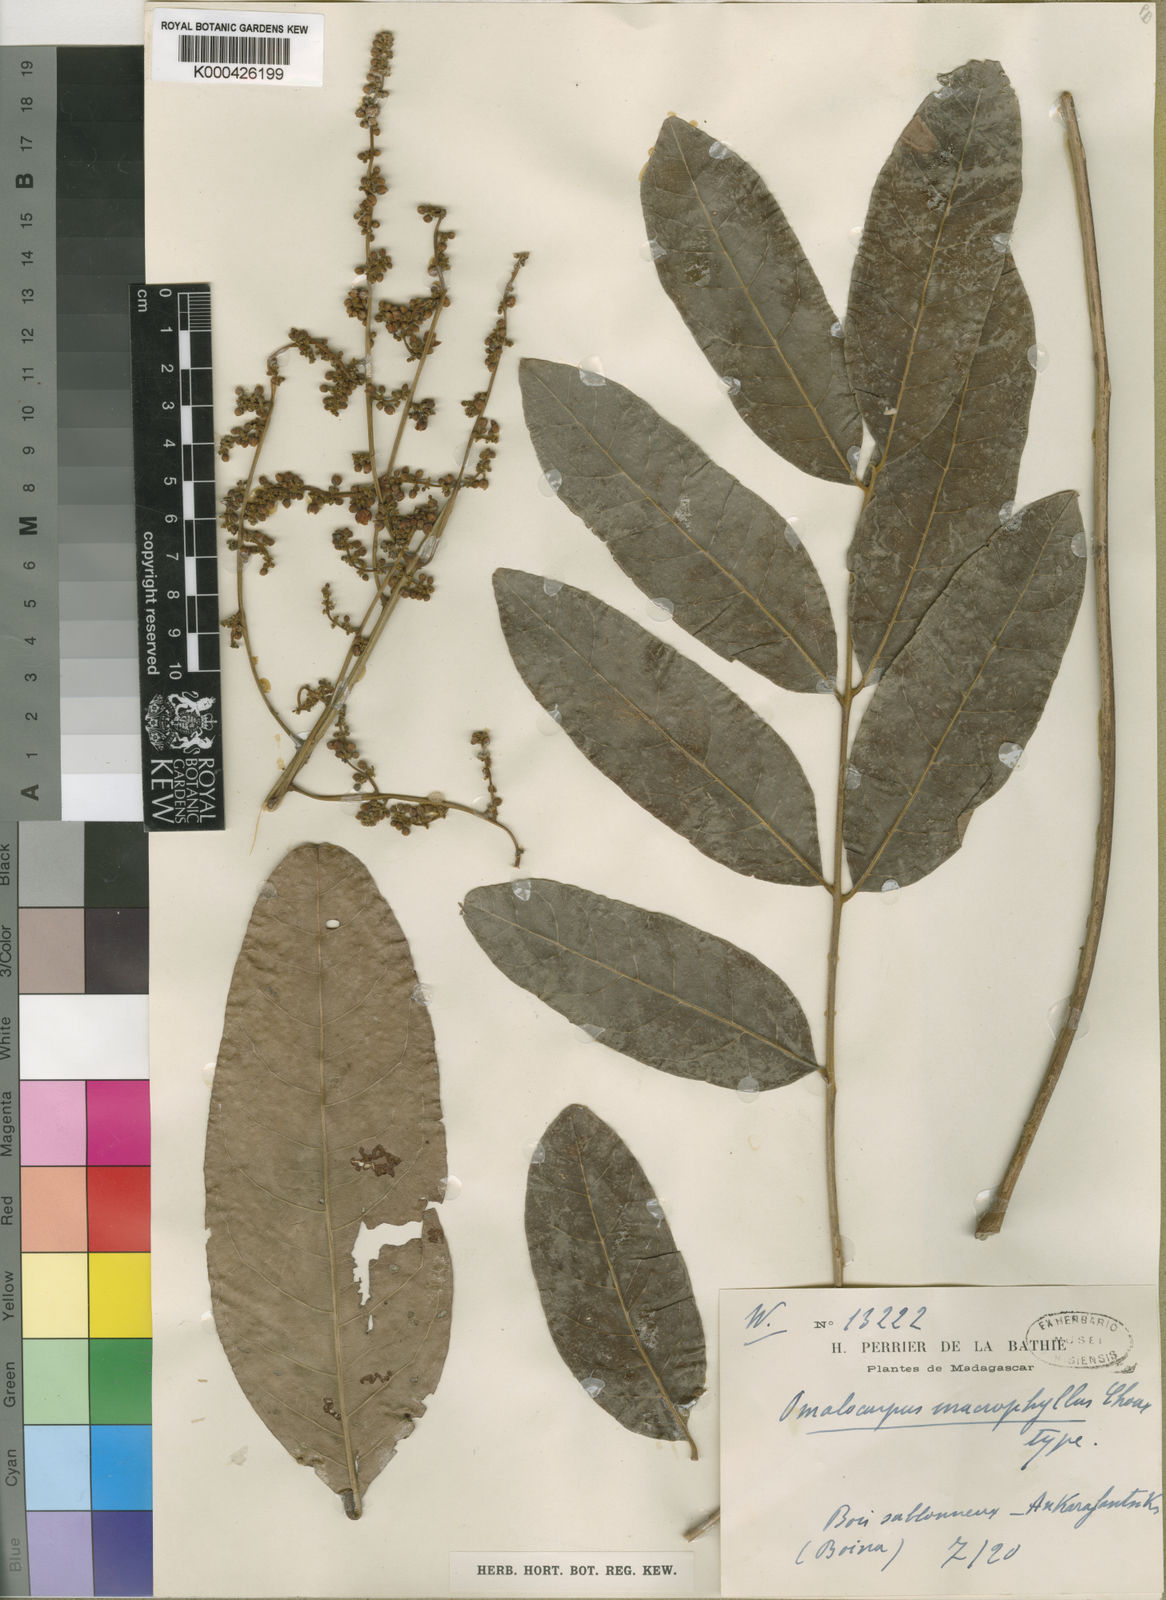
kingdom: Plantae
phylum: Tracheophyta
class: Magnoliopsida
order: Sapindales
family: Sapindaceae
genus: Deinbollia
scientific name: Deinbollia borbonica
